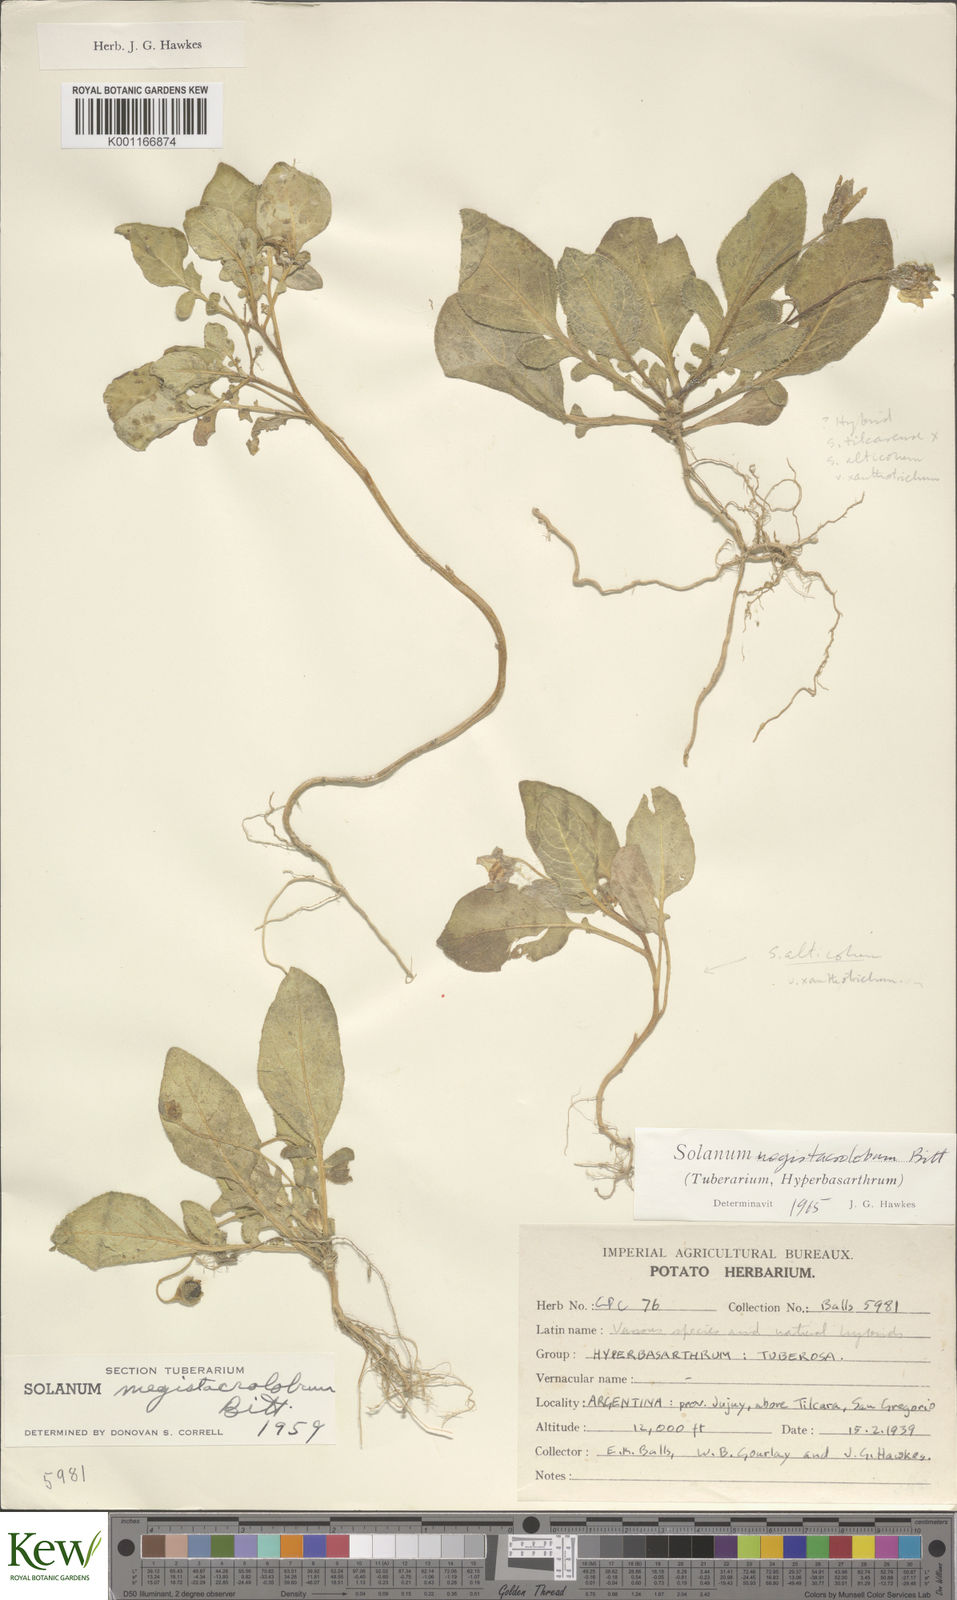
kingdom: Plantae
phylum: Tracheophyta
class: Magnoliopsida
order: Solanales
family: Solanaceae
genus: Solanum
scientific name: Solanum boliviense
